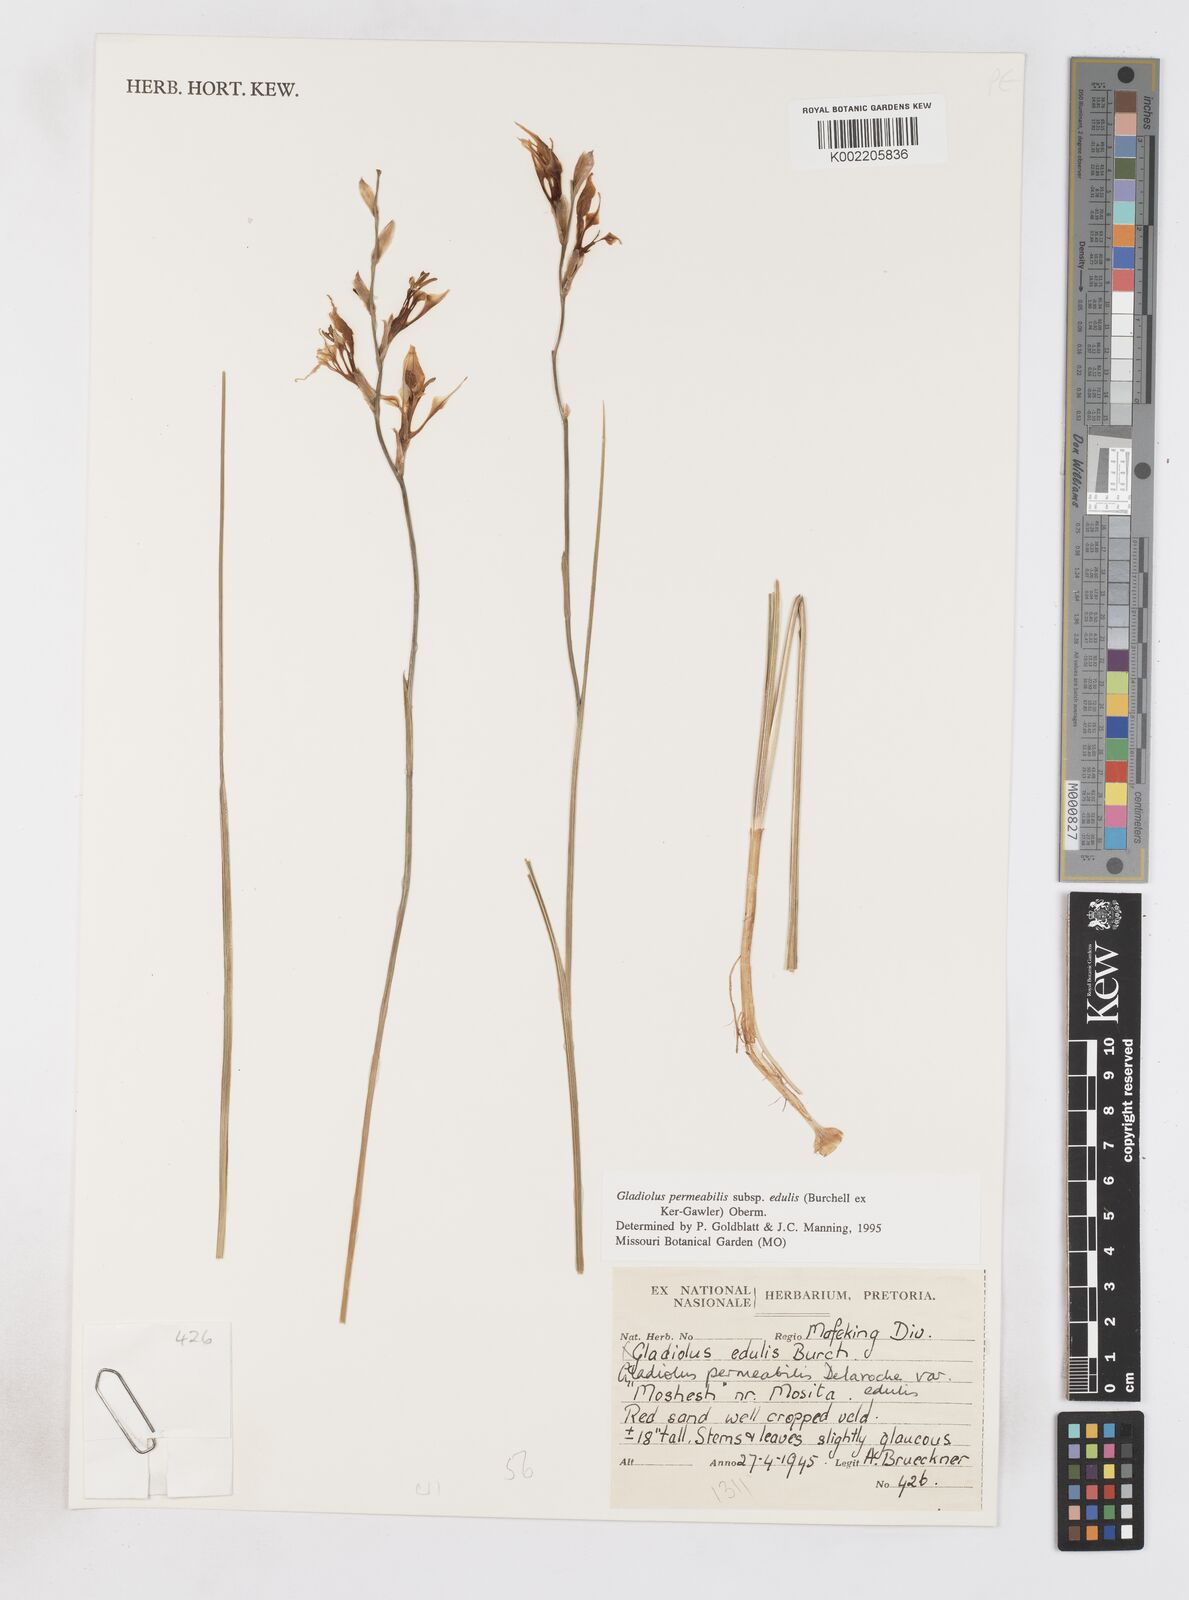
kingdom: Plantae
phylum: Tracheophyta
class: Liliopsida
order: Asparagales
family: Iridaceae
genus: Gladiolus
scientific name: Gladiolus permeabilis
